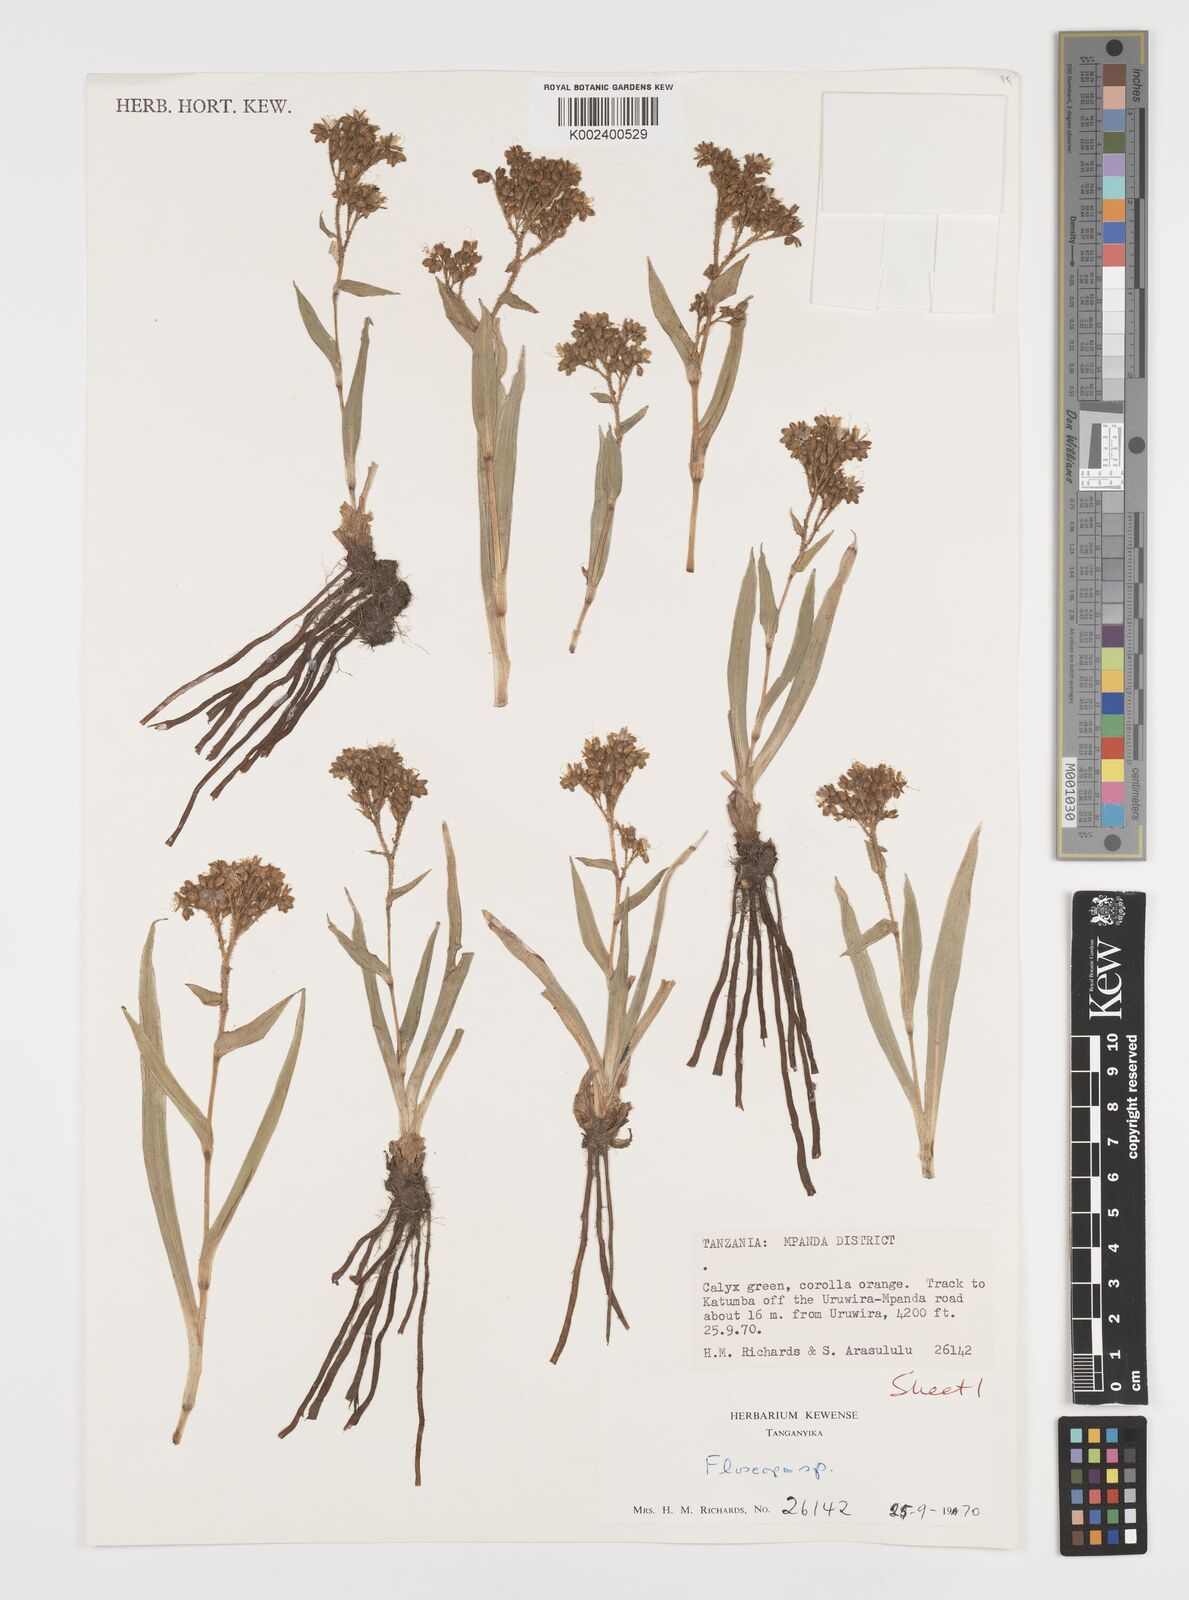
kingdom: Plantae
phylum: Tracheophyta
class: Liliopsida
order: Commelinales
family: Commelinaceae
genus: Floscopa
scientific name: Floscopa tanneri
